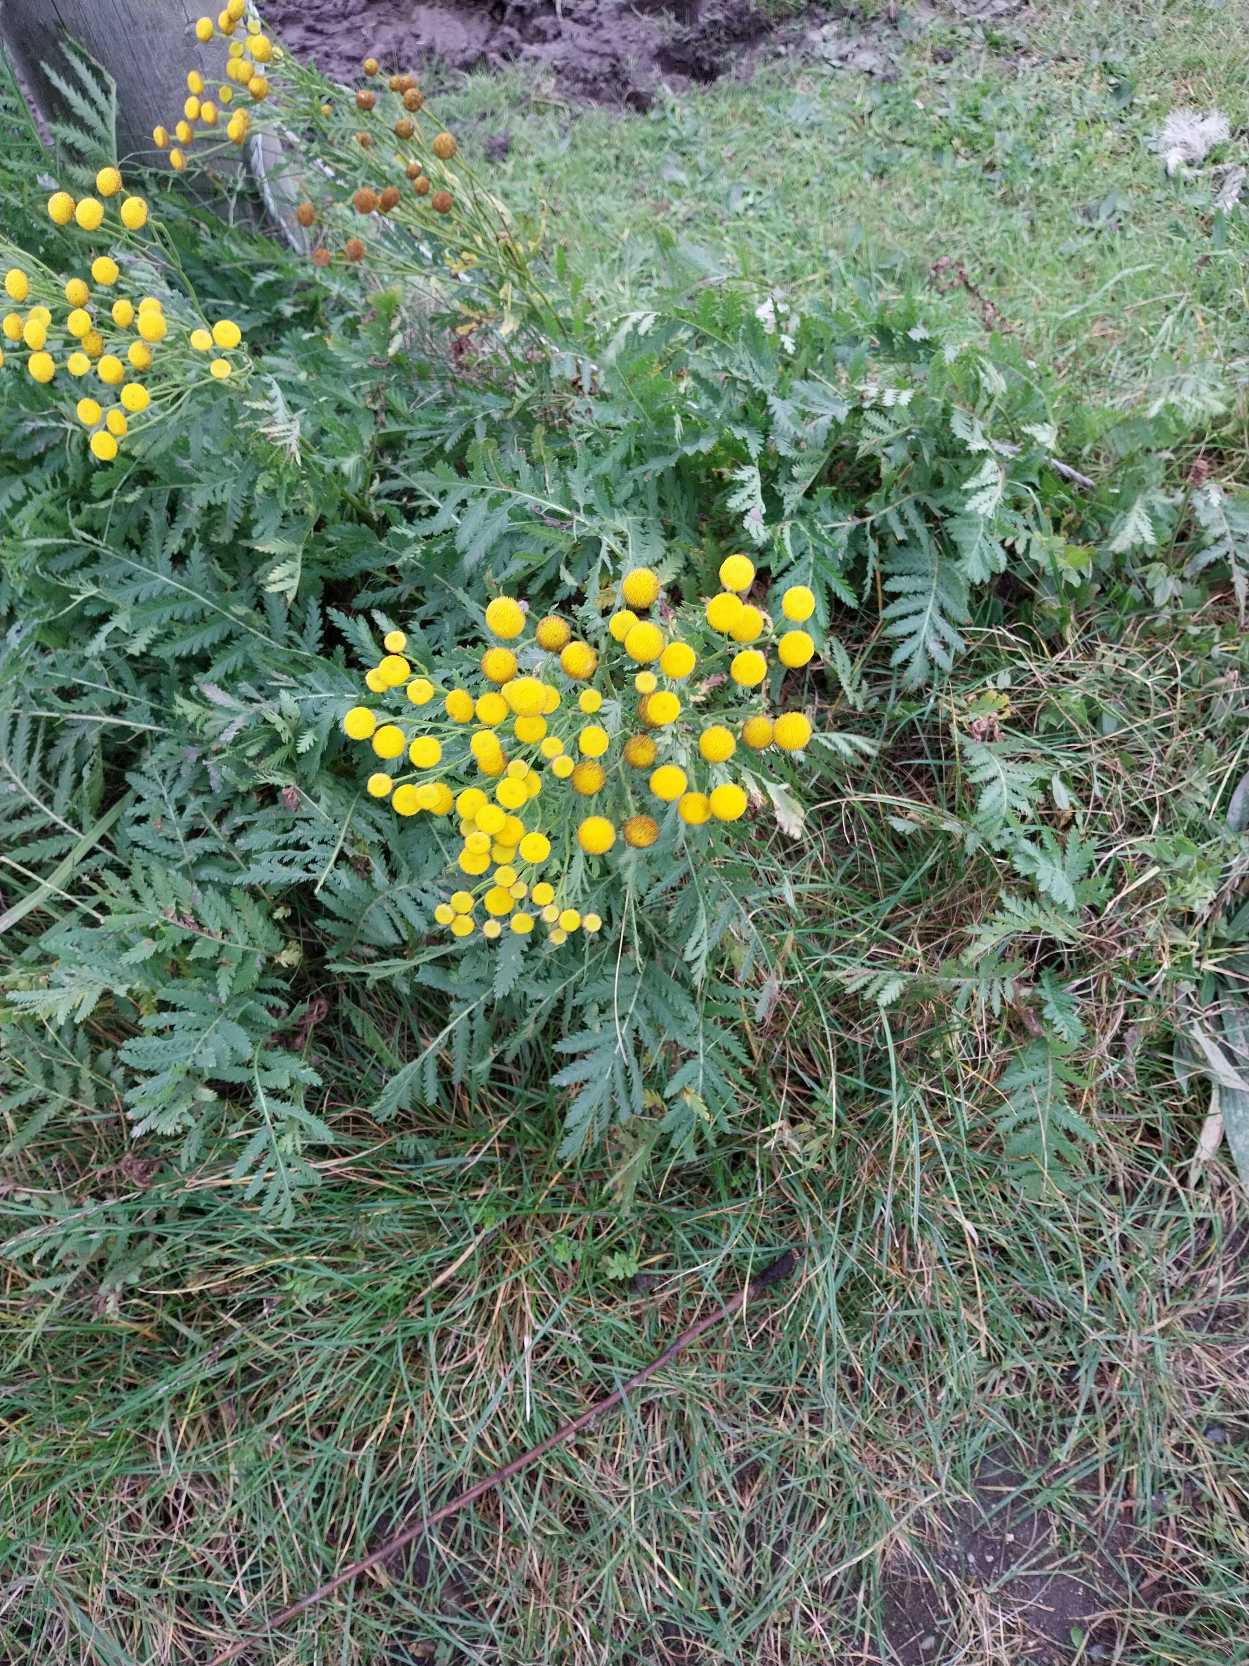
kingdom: Plantae
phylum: Tracheophyta
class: Magnoliopsida
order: Asterales
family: Asteraceae
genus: Tanacetum
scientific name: Tanacetum vulgare
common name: Rejnfan
